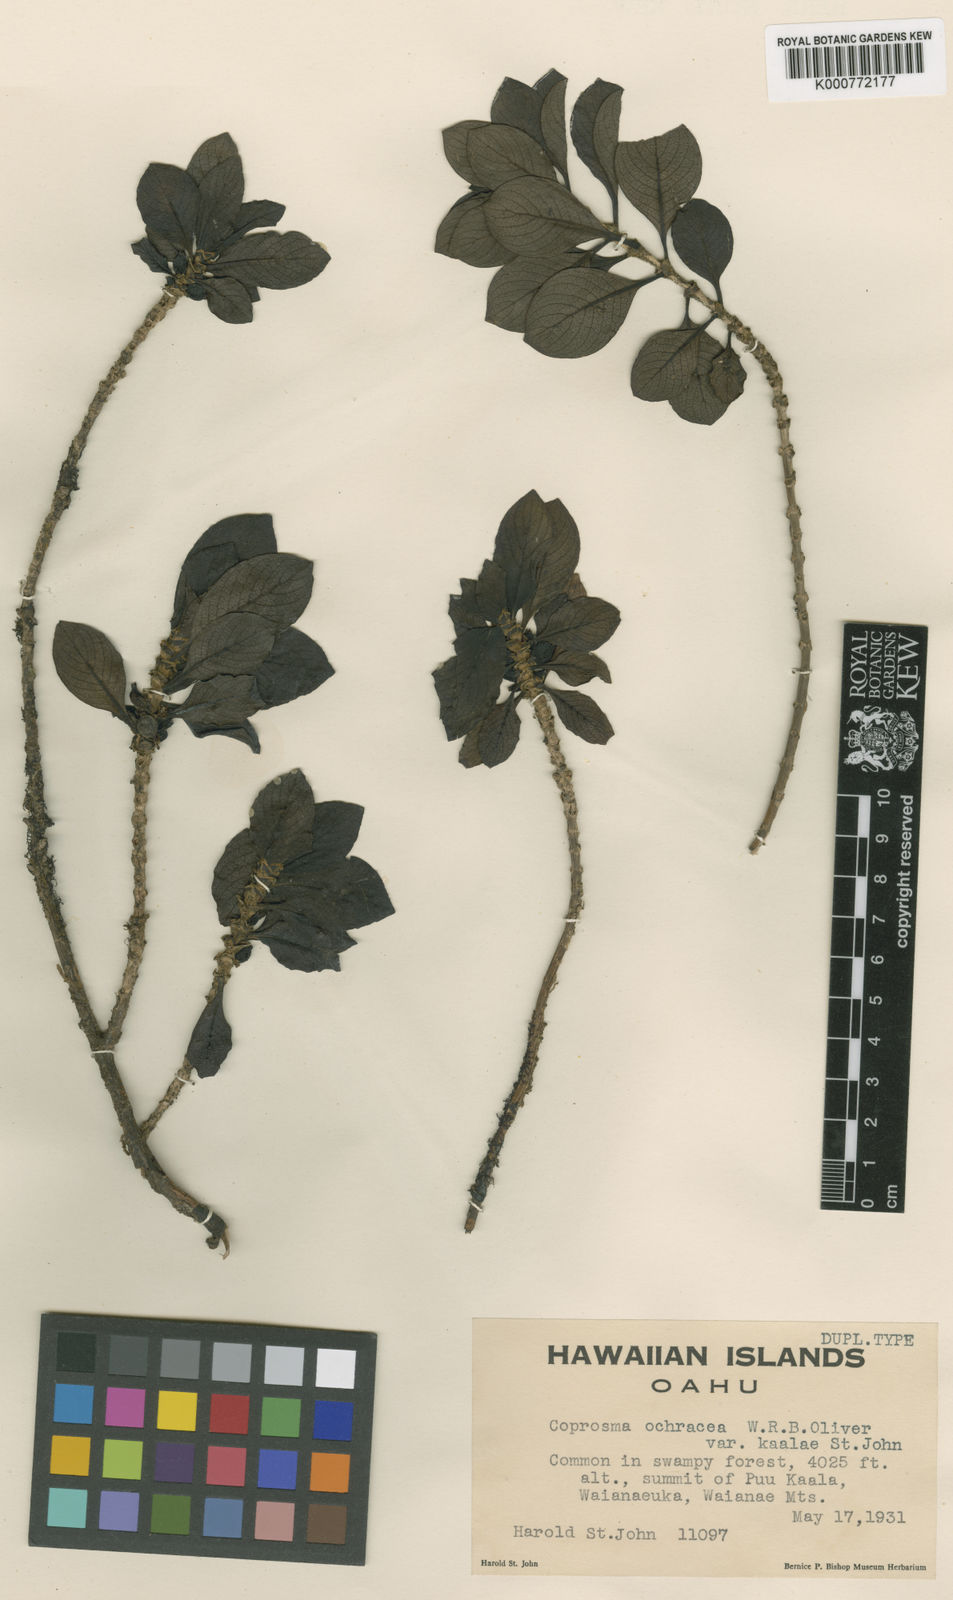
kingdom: Plantae
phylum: Tracheophyta
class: Magnoliopsida
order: Gentianales
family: Rubiaceae
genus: Coprosma
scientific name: Coprosma ochracea
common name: Maui mirrorplant
